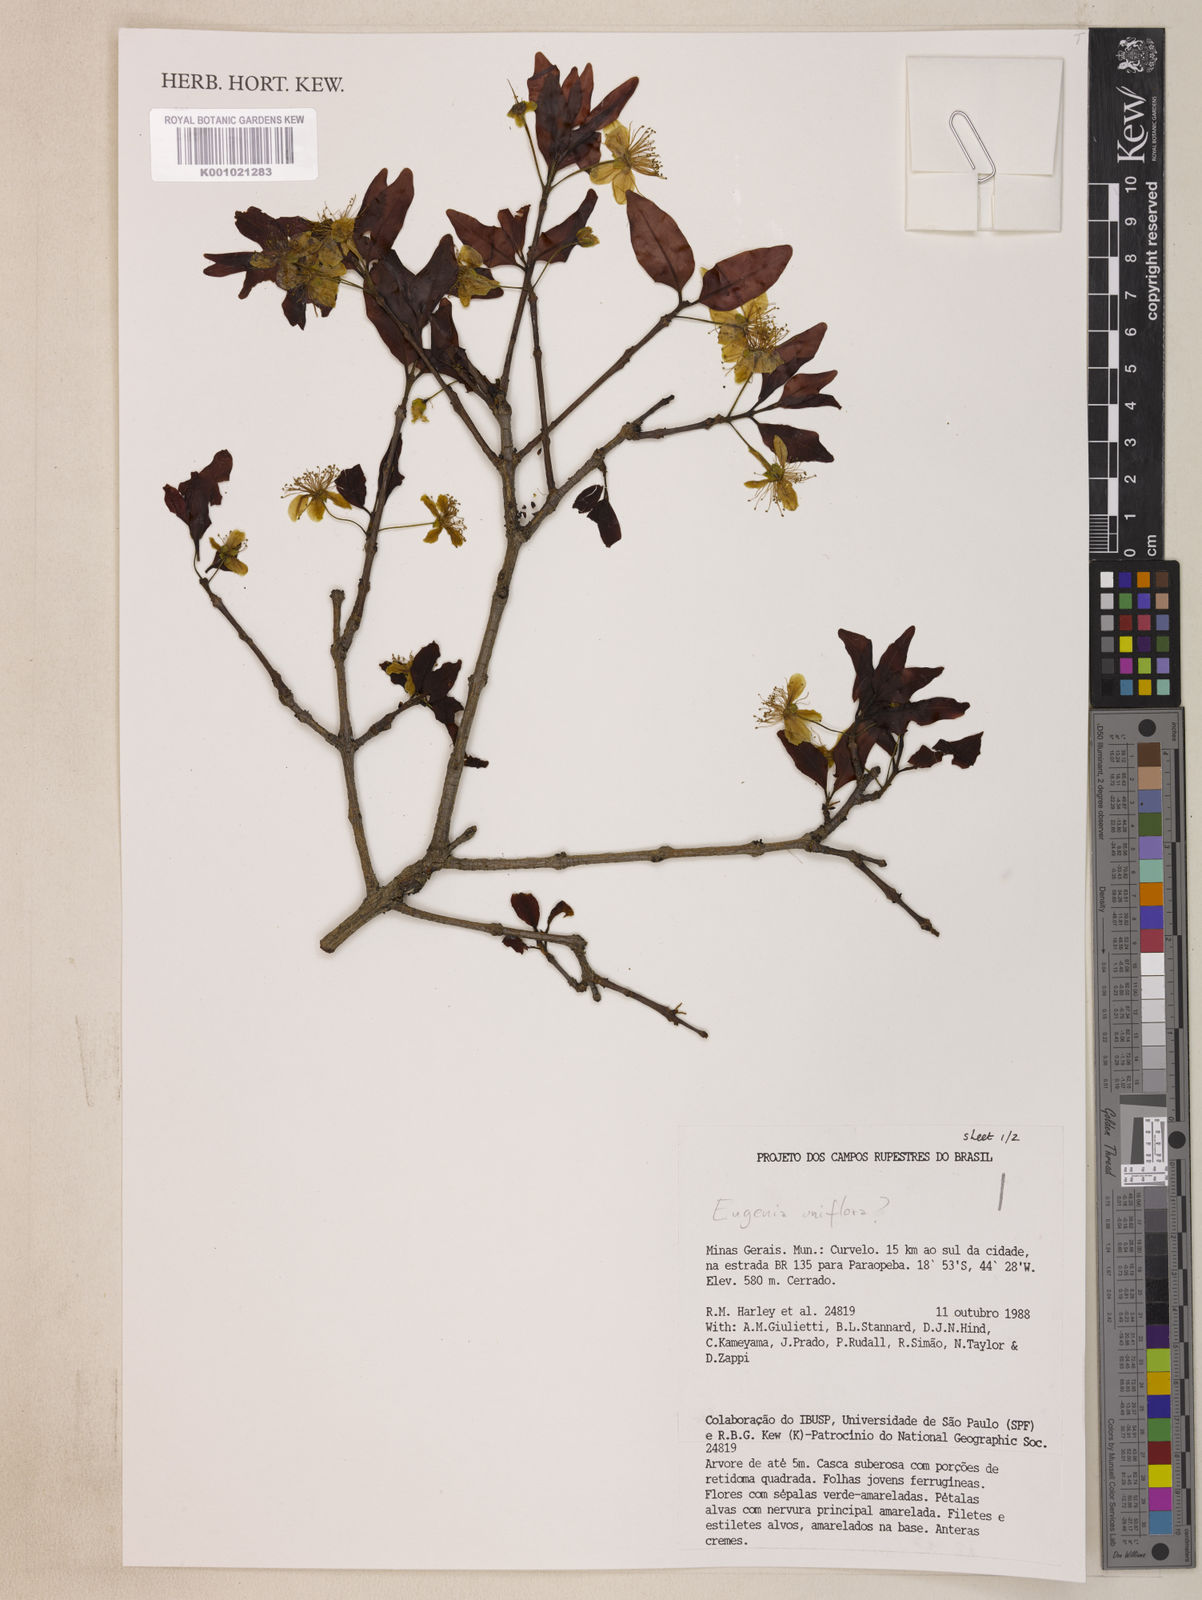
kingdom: Plantae
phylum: Tracheophyta
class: Magnoliopsida
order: Myrtales
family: Myrtaceae
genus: Eugenia
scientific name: Eugenia uniflora
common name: Surinam cherry
